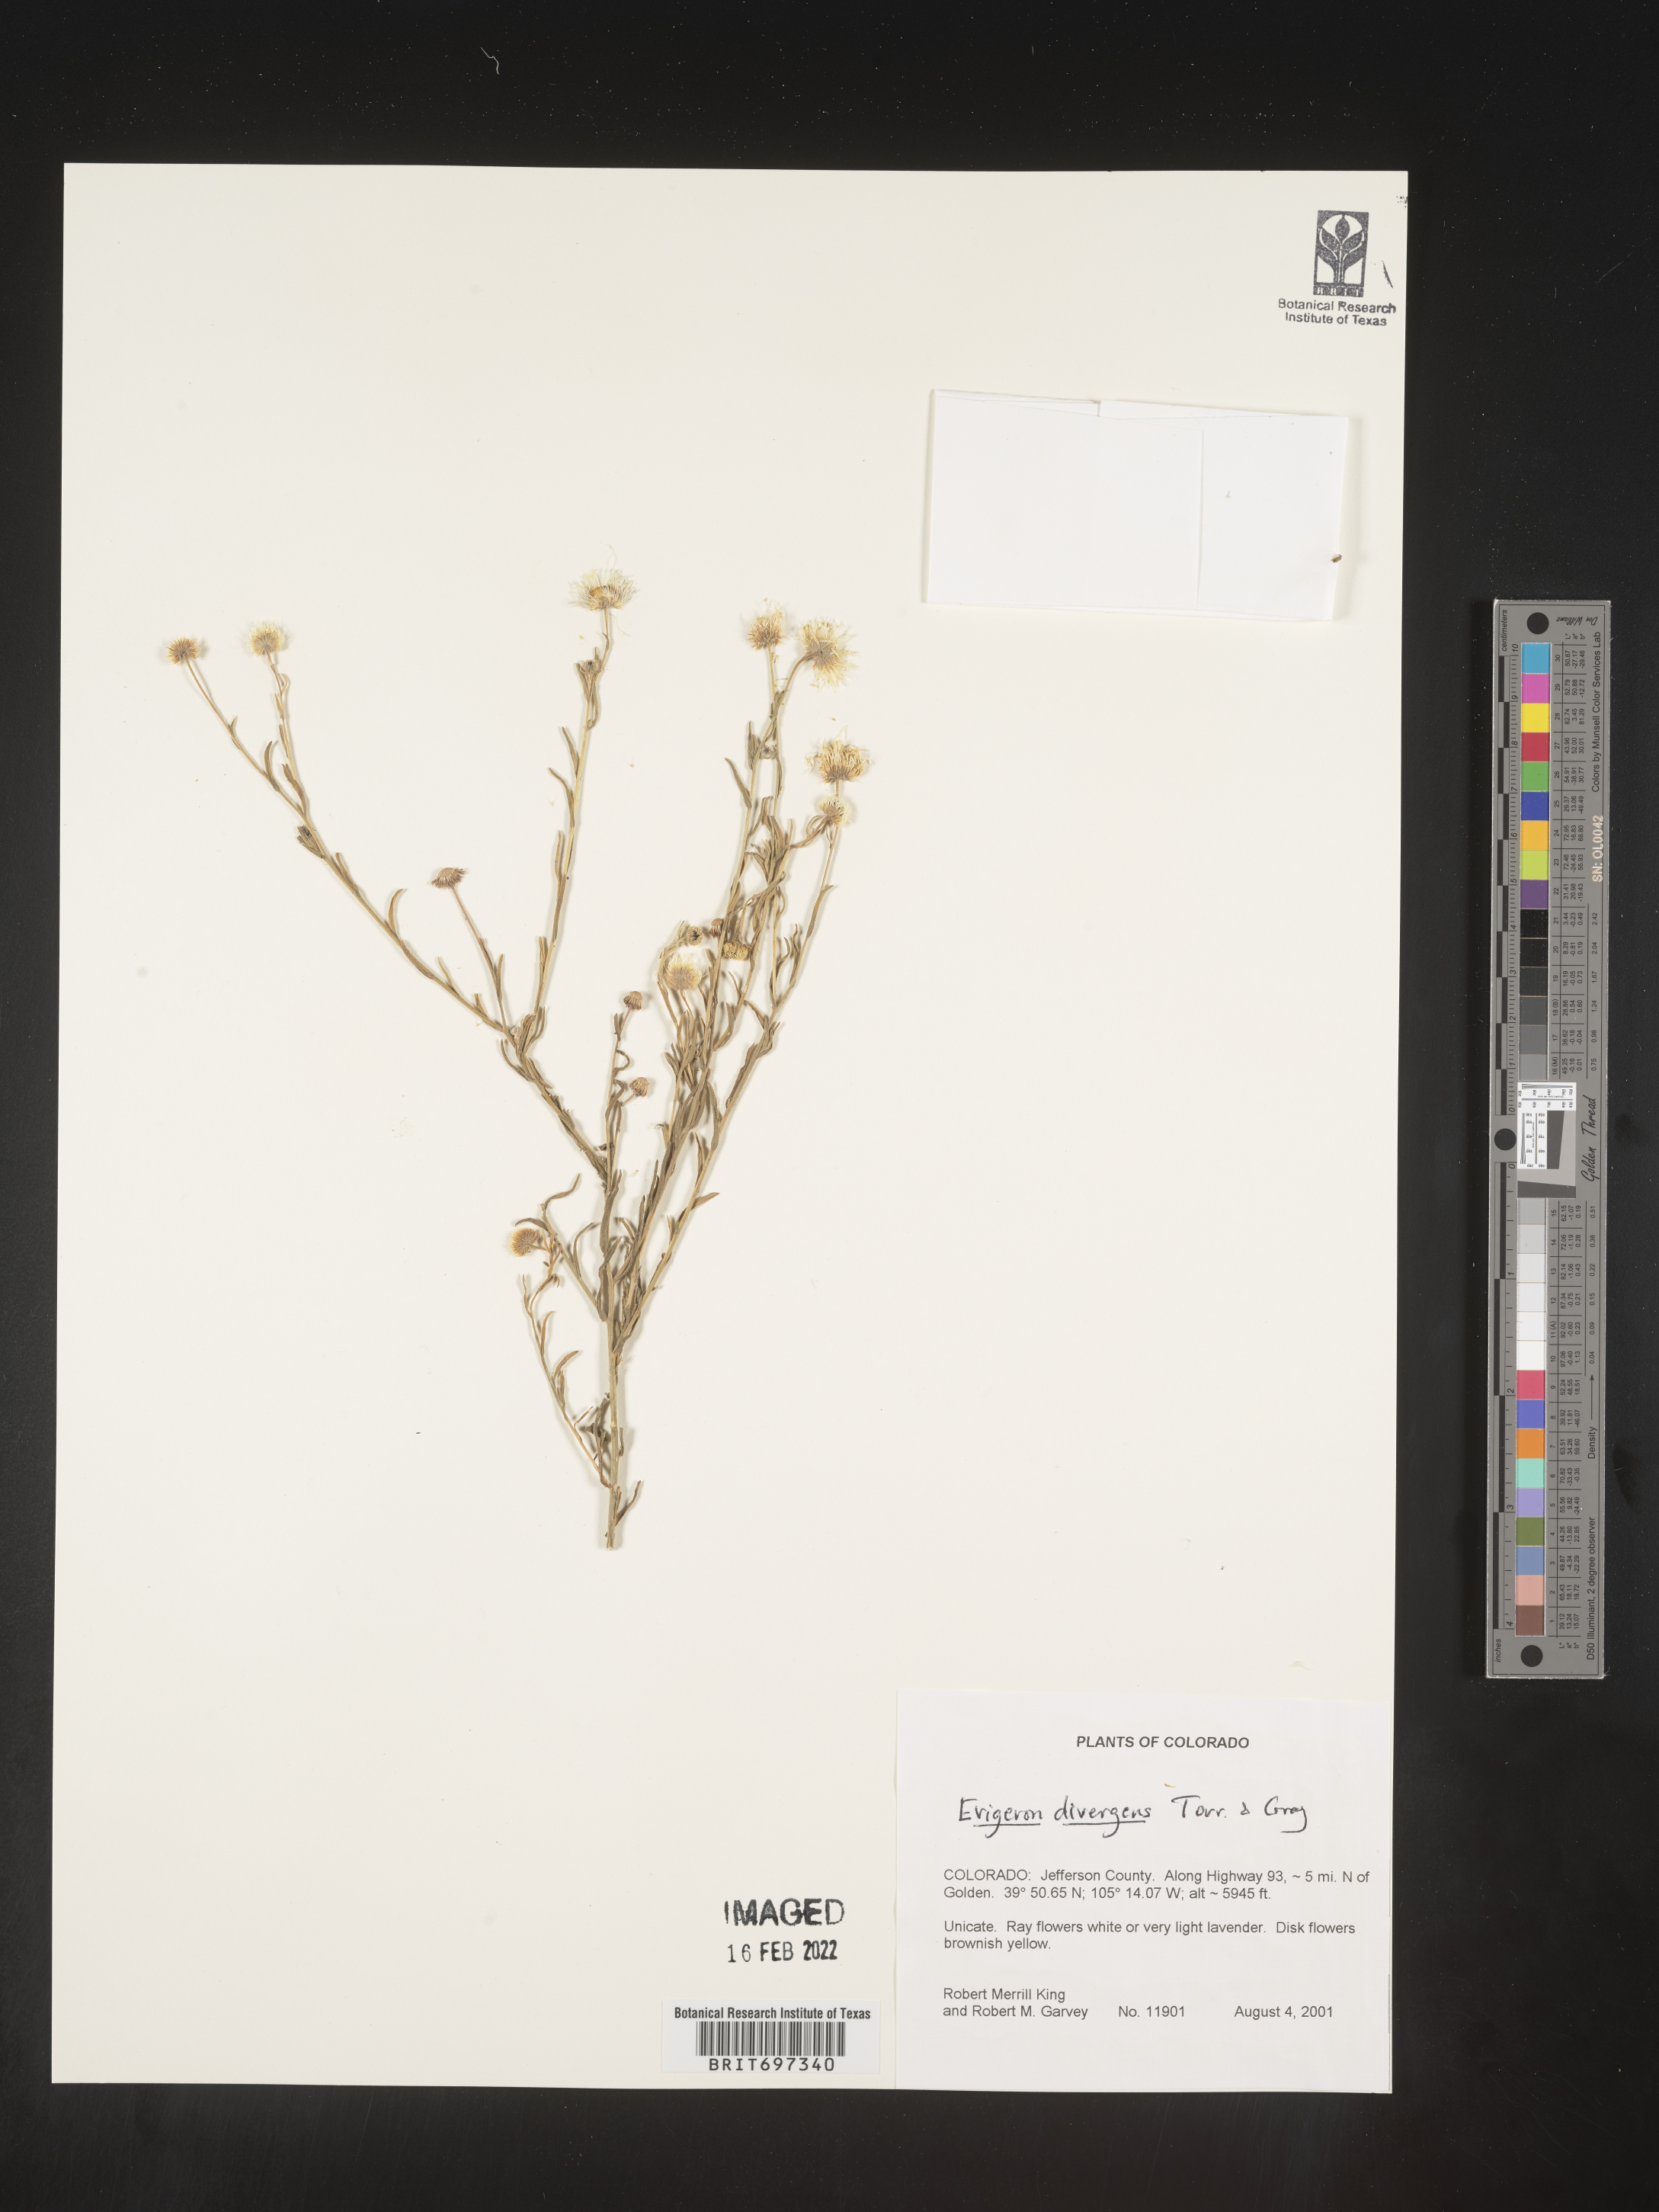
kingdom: Plantae
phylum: Tracheophyta
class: Magnoliopsida
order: Asterales
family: Asteraceae
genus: Erigeron
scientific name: Erigeron divergens
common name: Diffuse fleabane
